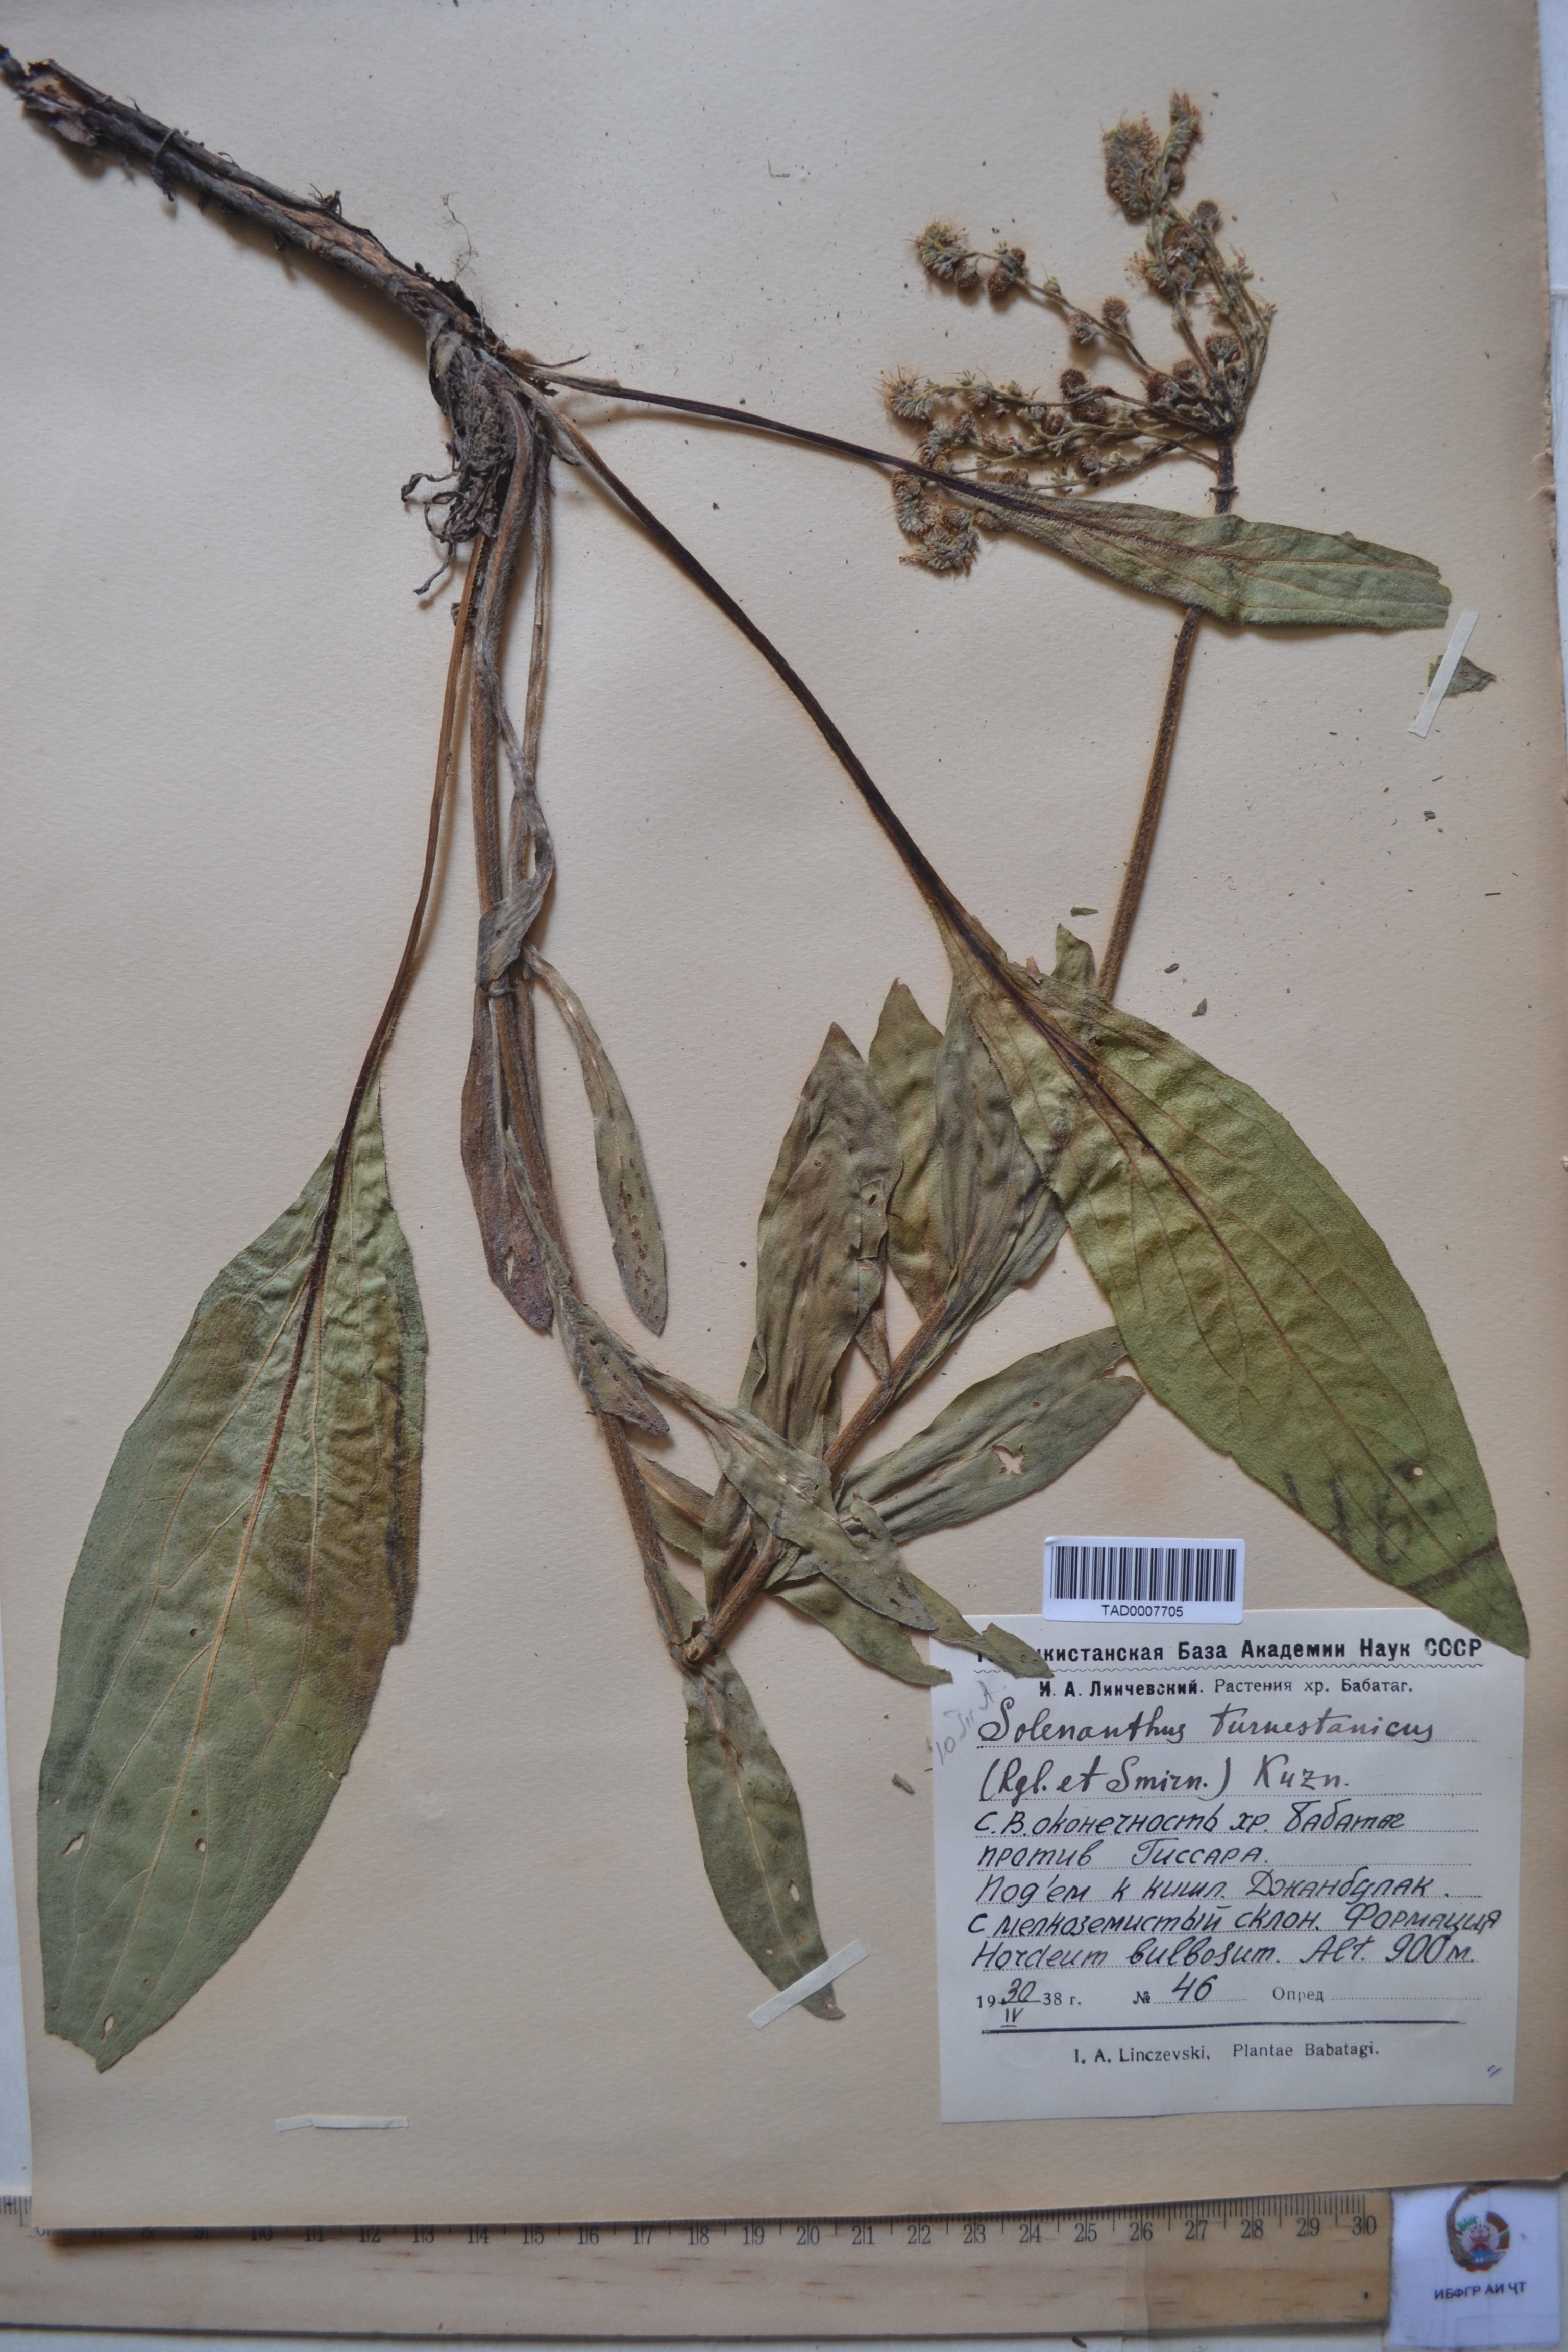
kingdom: Plantae
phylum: Tracheophyta
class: Magnoliopsida
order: Boraginales
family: Boraginaceae
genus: Solenanthus
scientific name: Solenanthus turkestanicus
